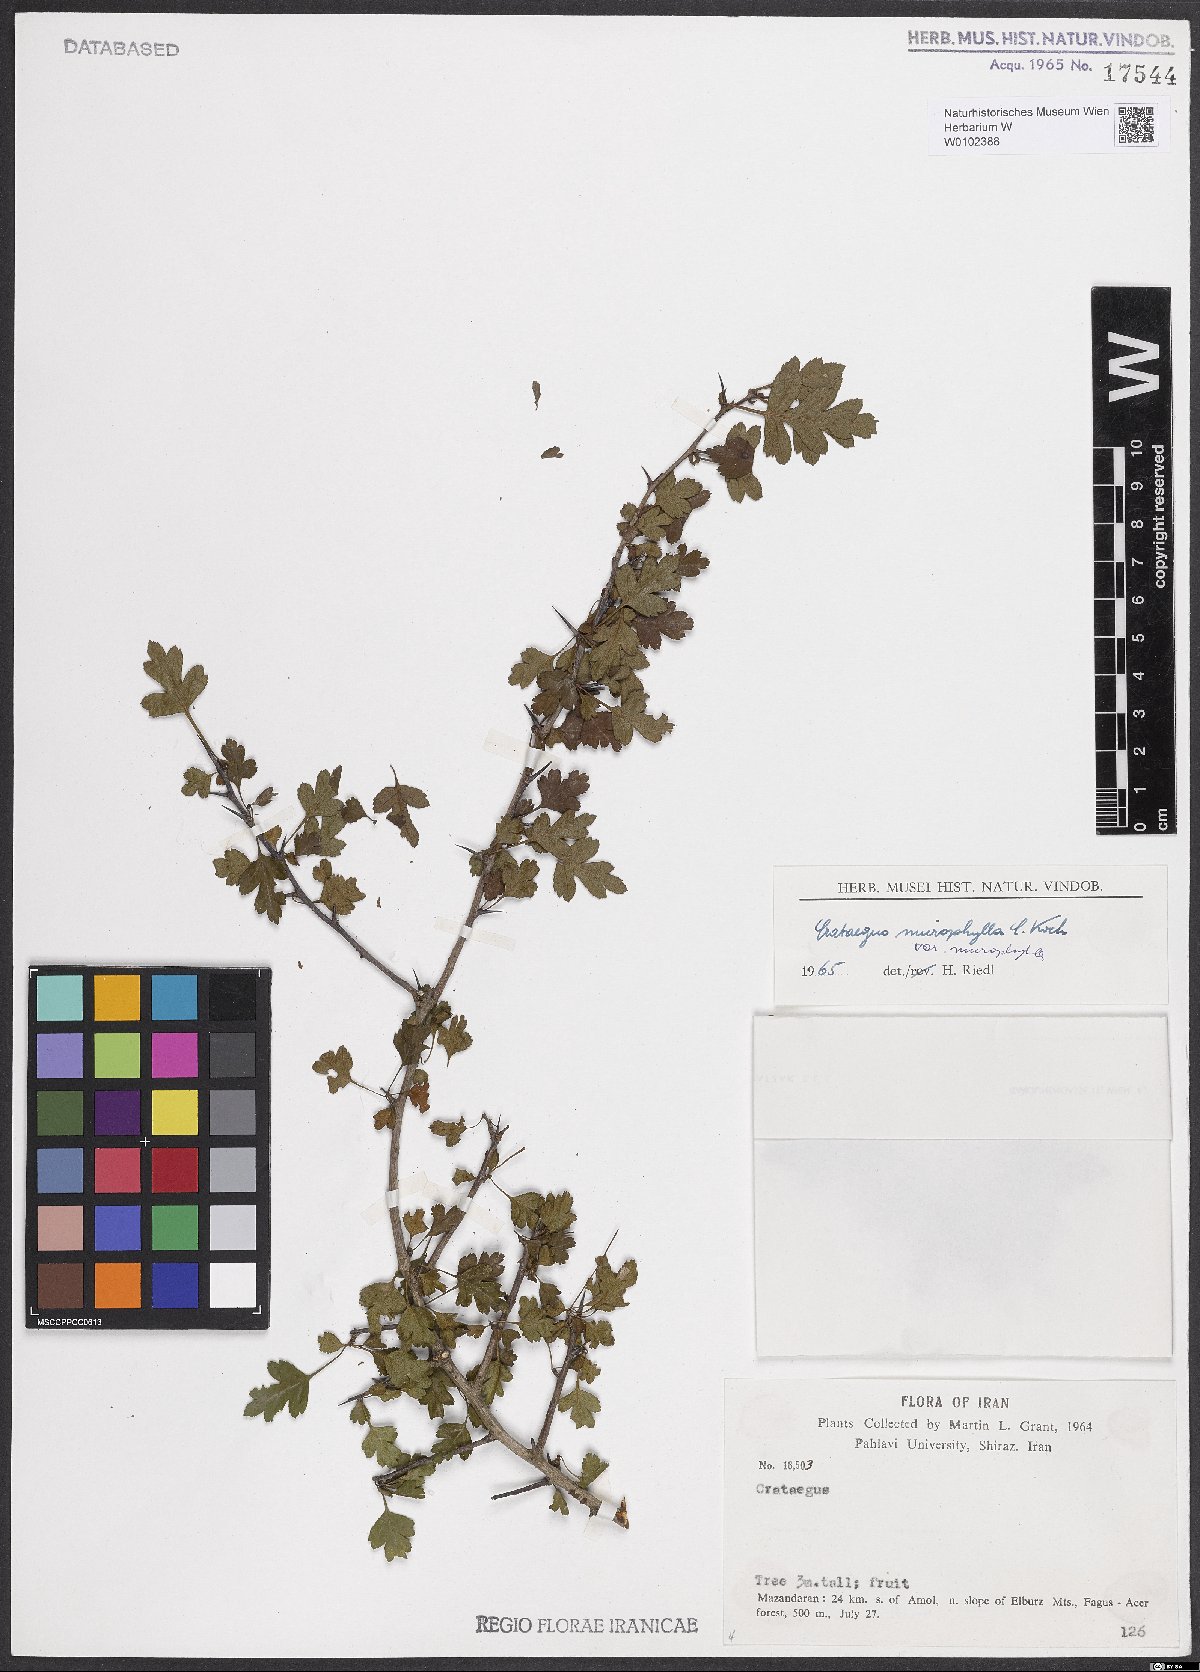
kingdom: Plantae
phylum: Tracheophyta
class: Magnoliopsida
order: Rosales
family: Rosaceae
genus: Crataegus
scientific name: Crataegus microphylla
